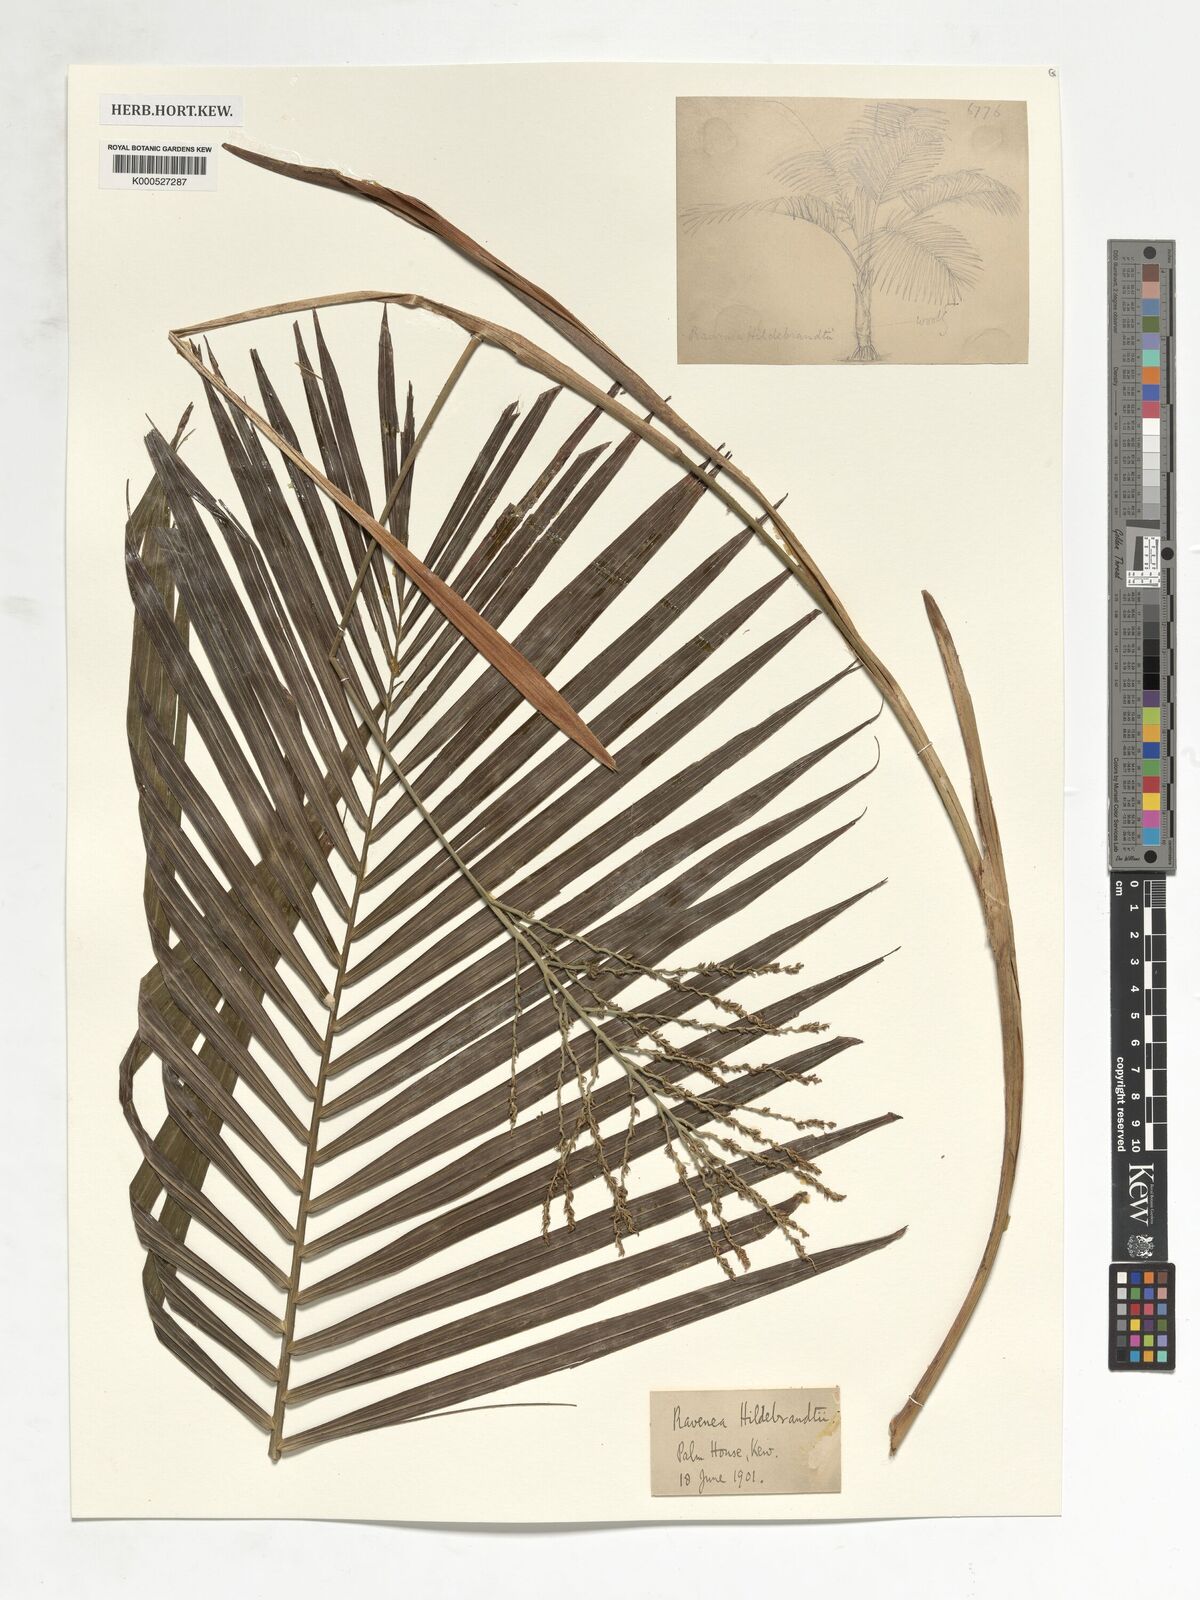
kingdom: Plantae
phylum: Tracheophyta
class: Liliopsida
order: Arecales
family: Arecaceae
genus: Ravenea
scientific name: Ravenea hildebrandtii
